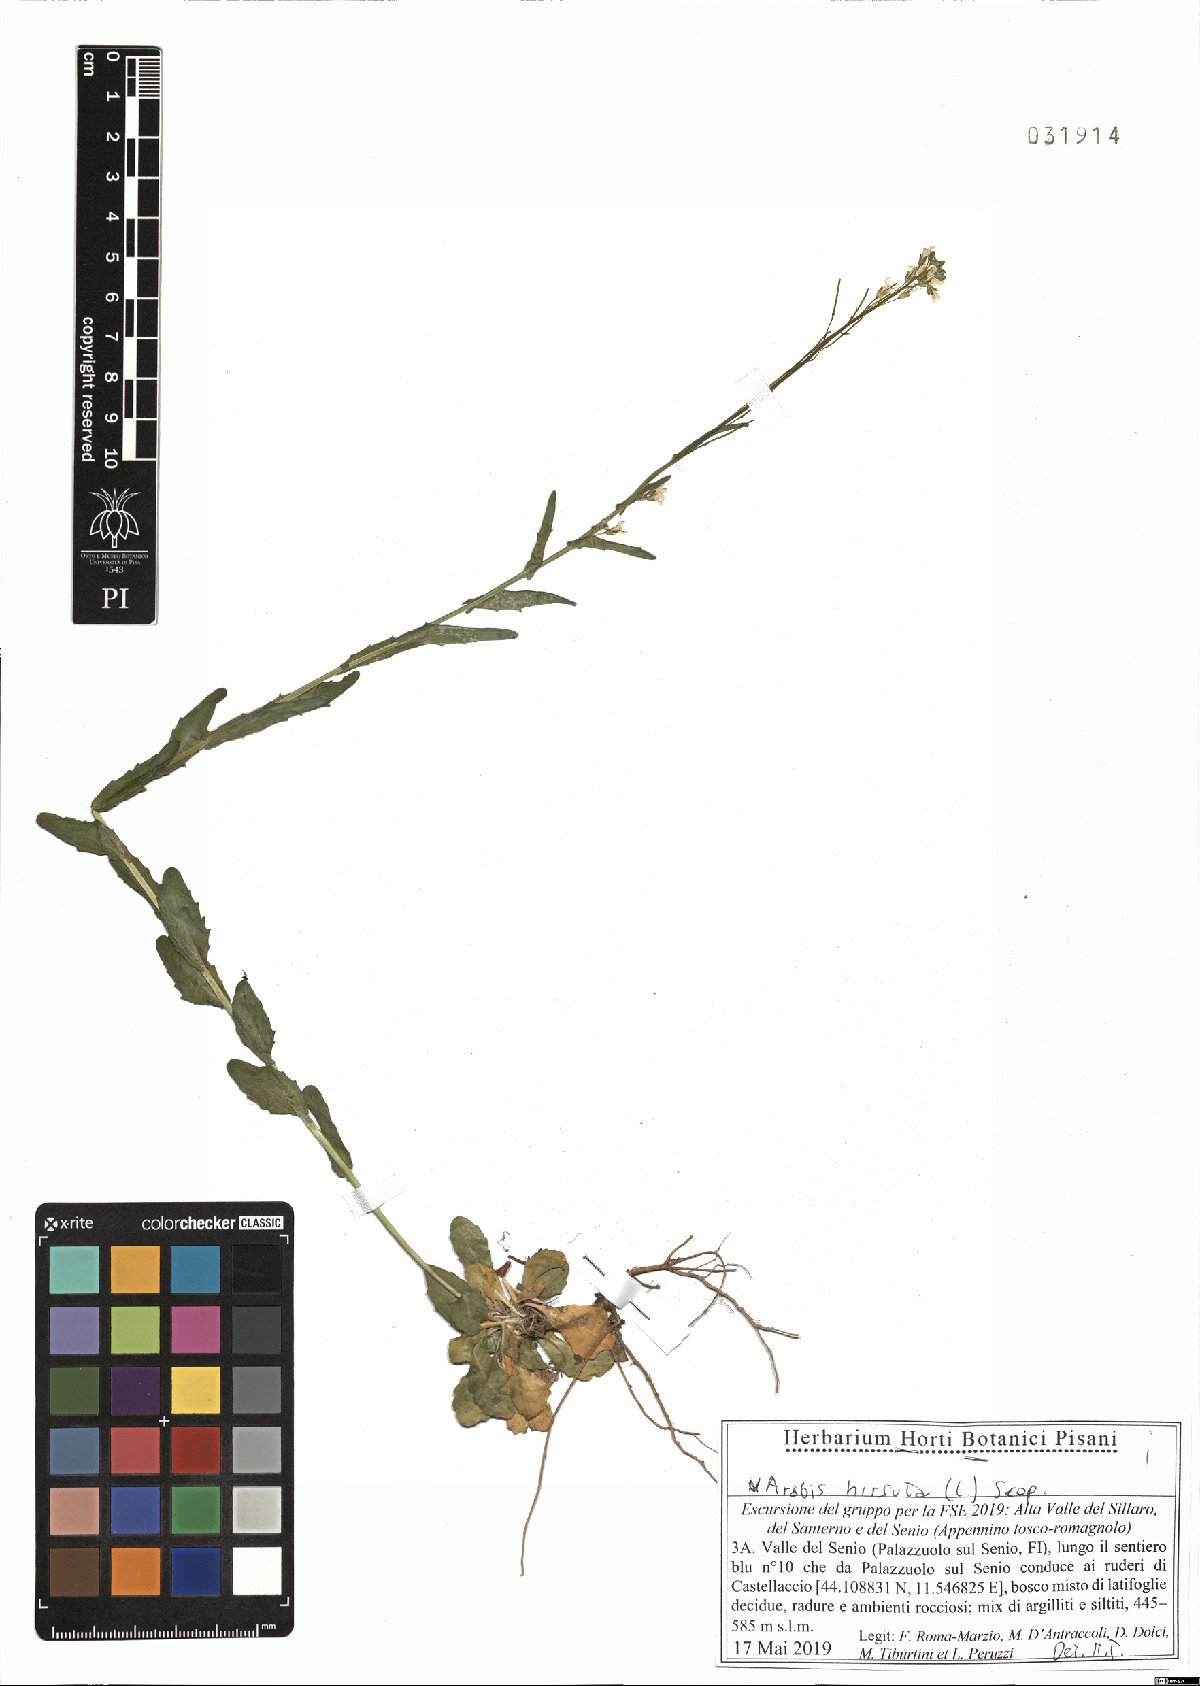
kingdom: Plantae
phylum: Tracheophyta
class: Magnoliopsida
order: Brassicales
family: Brassicaceae
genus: Arabis
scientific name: Arabis hirsuta
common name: Hairy rock-cress
